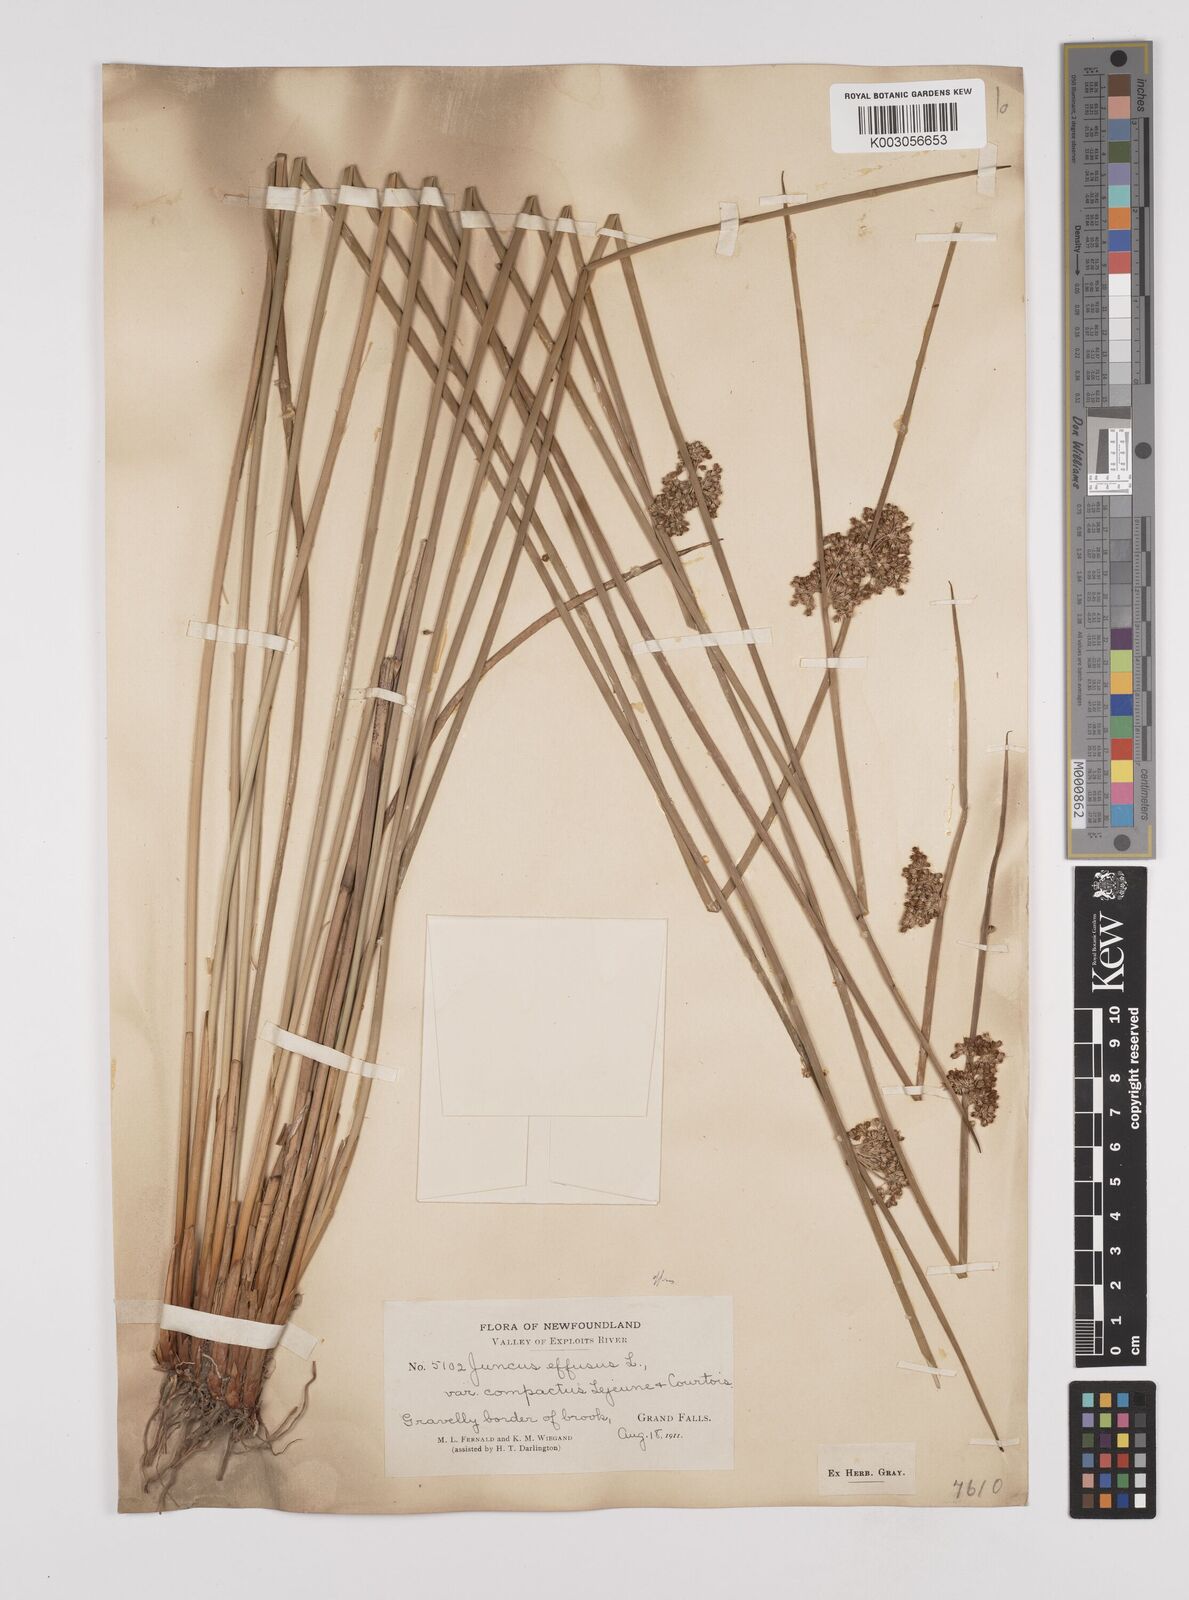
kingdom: Plantae
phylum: Tracheophyta
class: Liliopsida
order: Poales
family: Juncaceae
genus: Juncus
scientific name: Juncus effusus
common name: Soft rush
